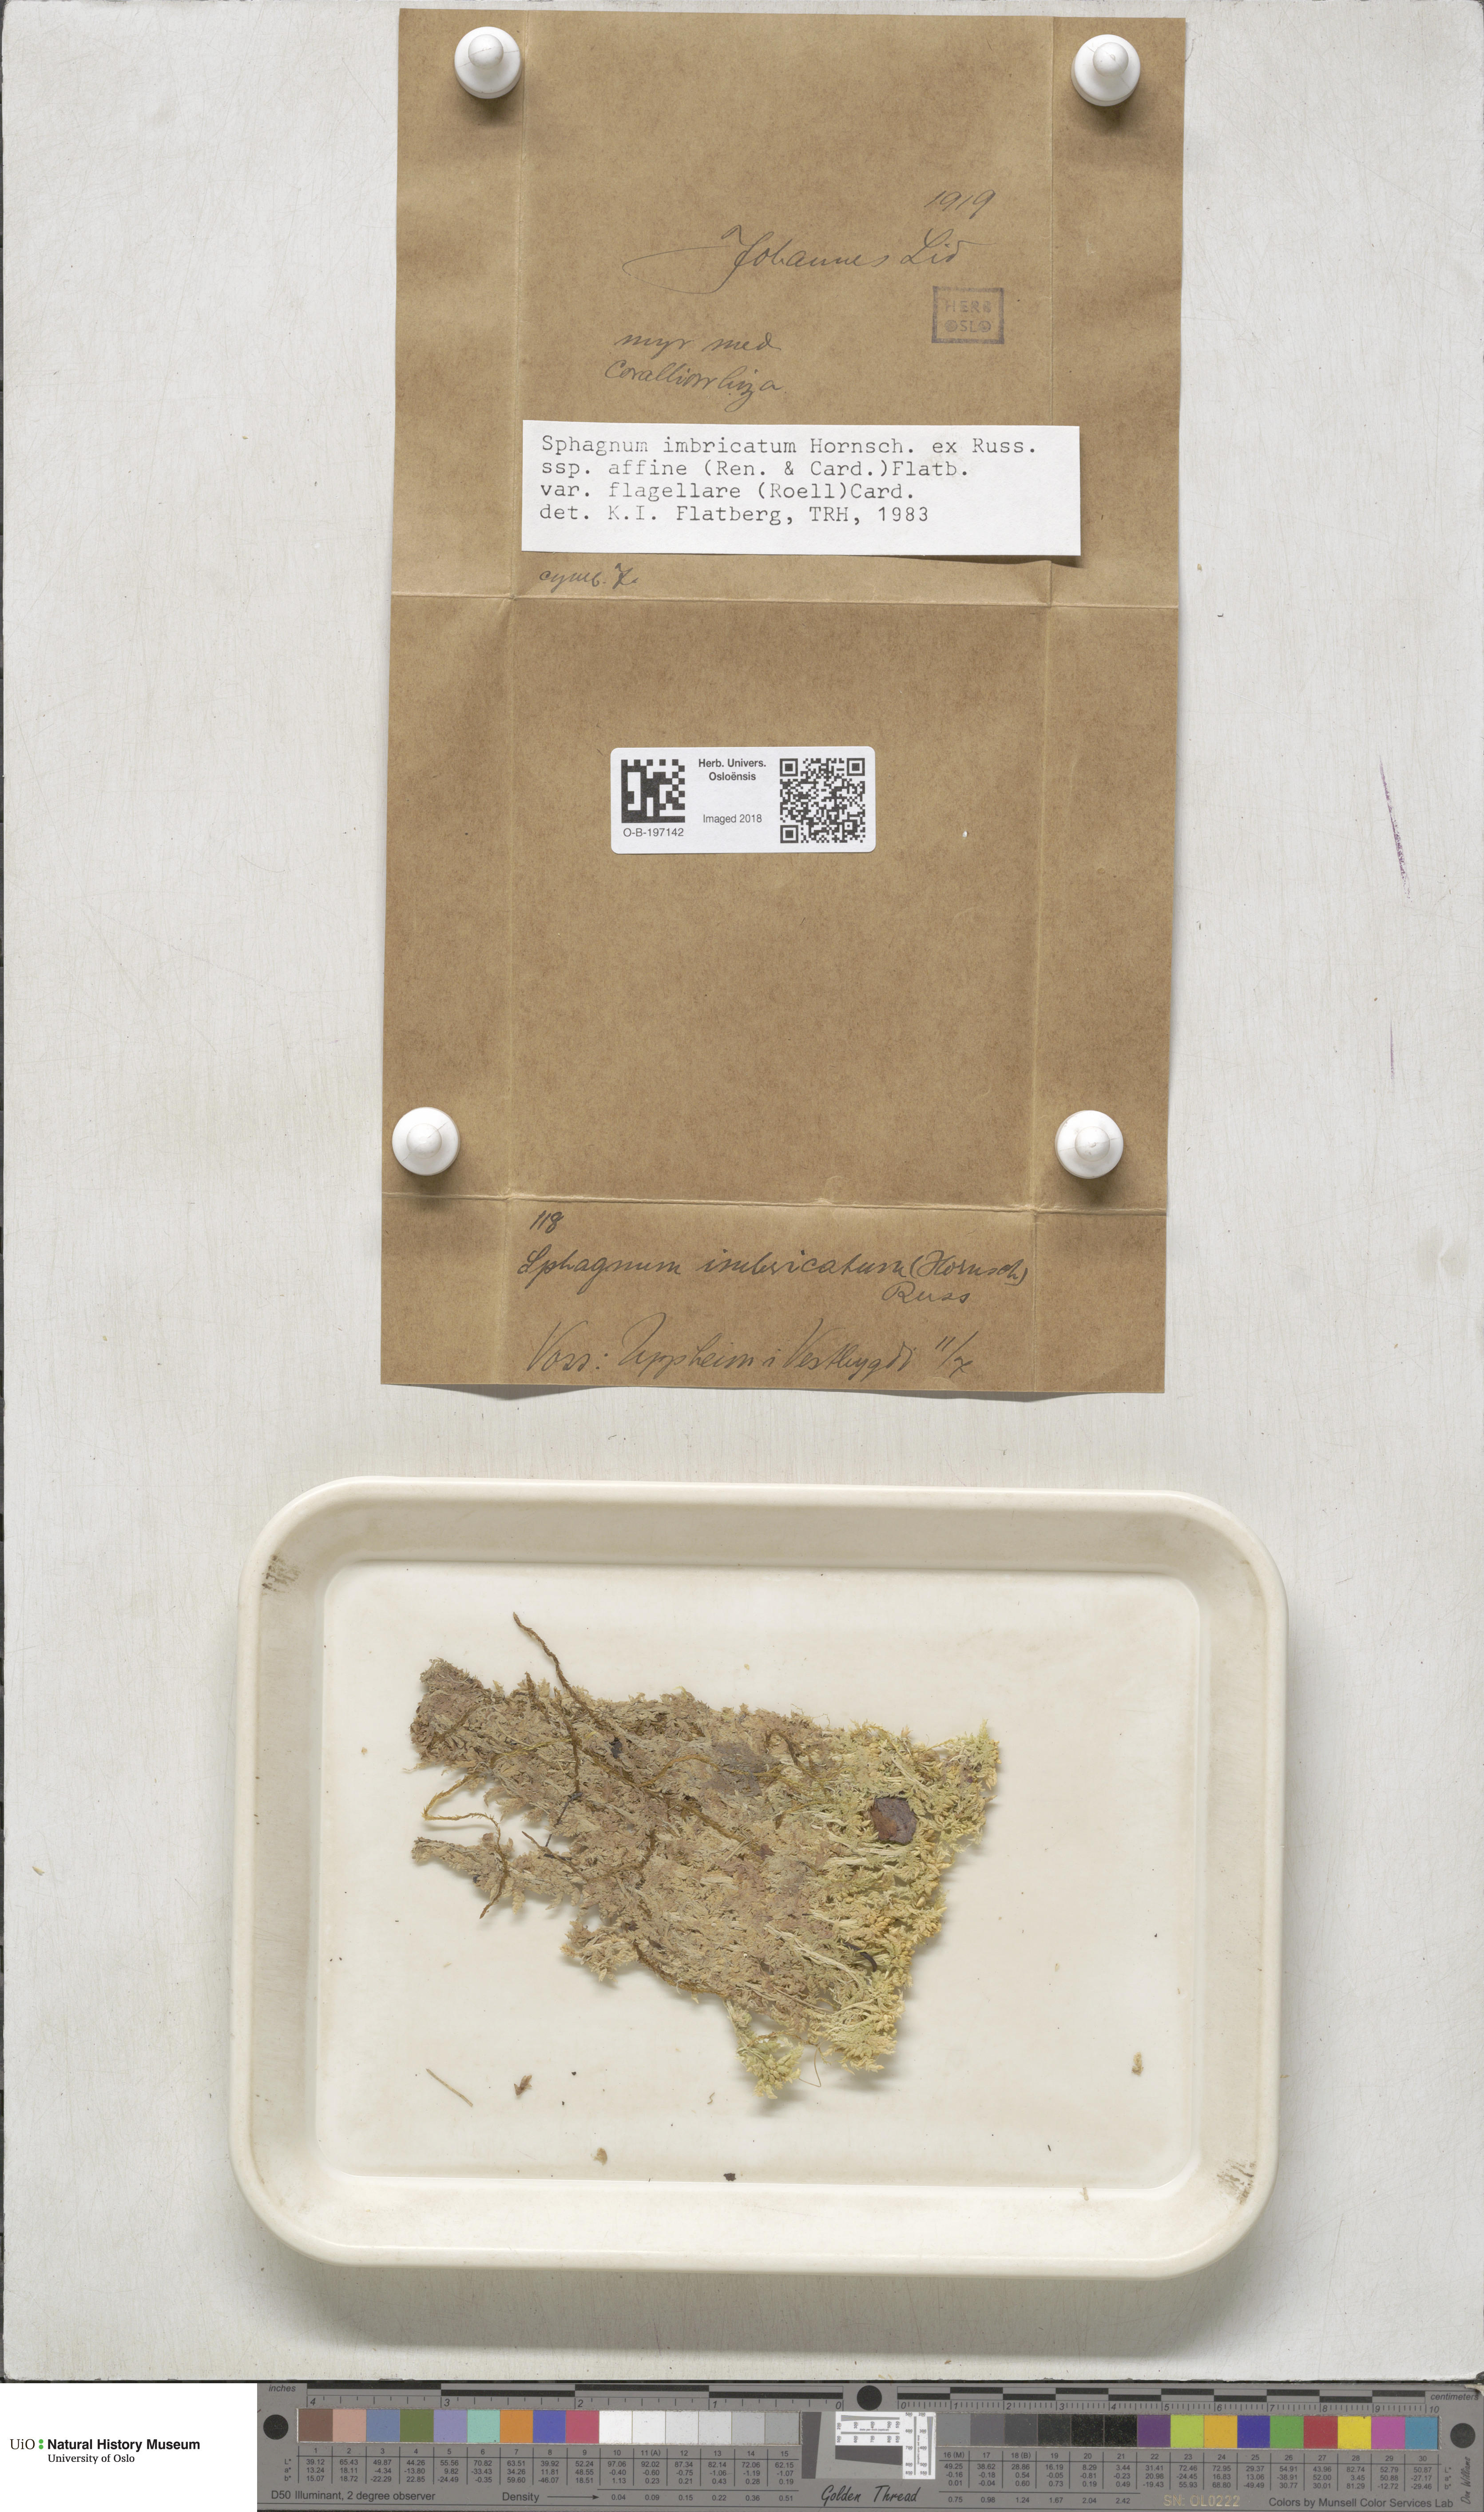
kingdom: Plantae
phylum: Bryophyta
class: Sphagnopsida
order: Sphagnales
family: Sphagnaceae
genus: Sphagnum
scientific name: Sphagnum affine
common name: Imbricate peat moss
